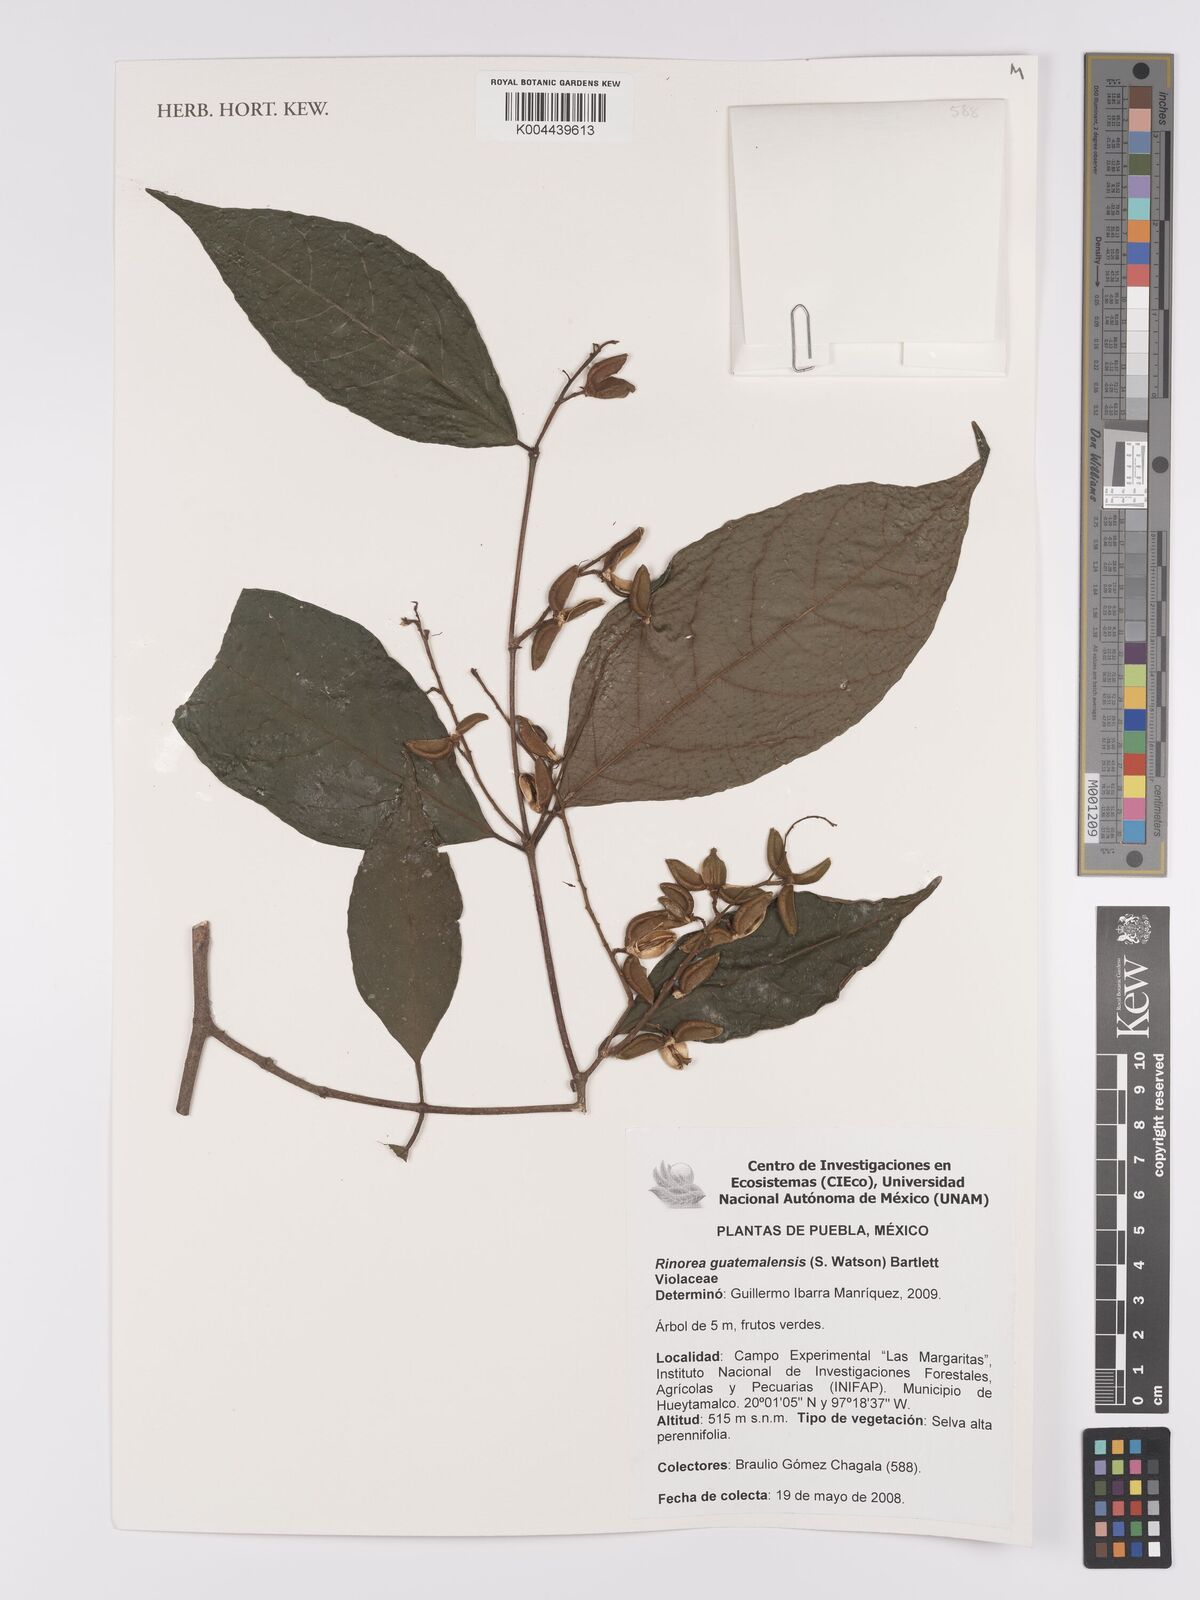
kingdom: Plantae
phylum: Tracheophyta
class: Magnoliopsida
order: Malpighiales
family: Violaceae
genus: Rinorea
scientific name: Rinorea guatemalensis
